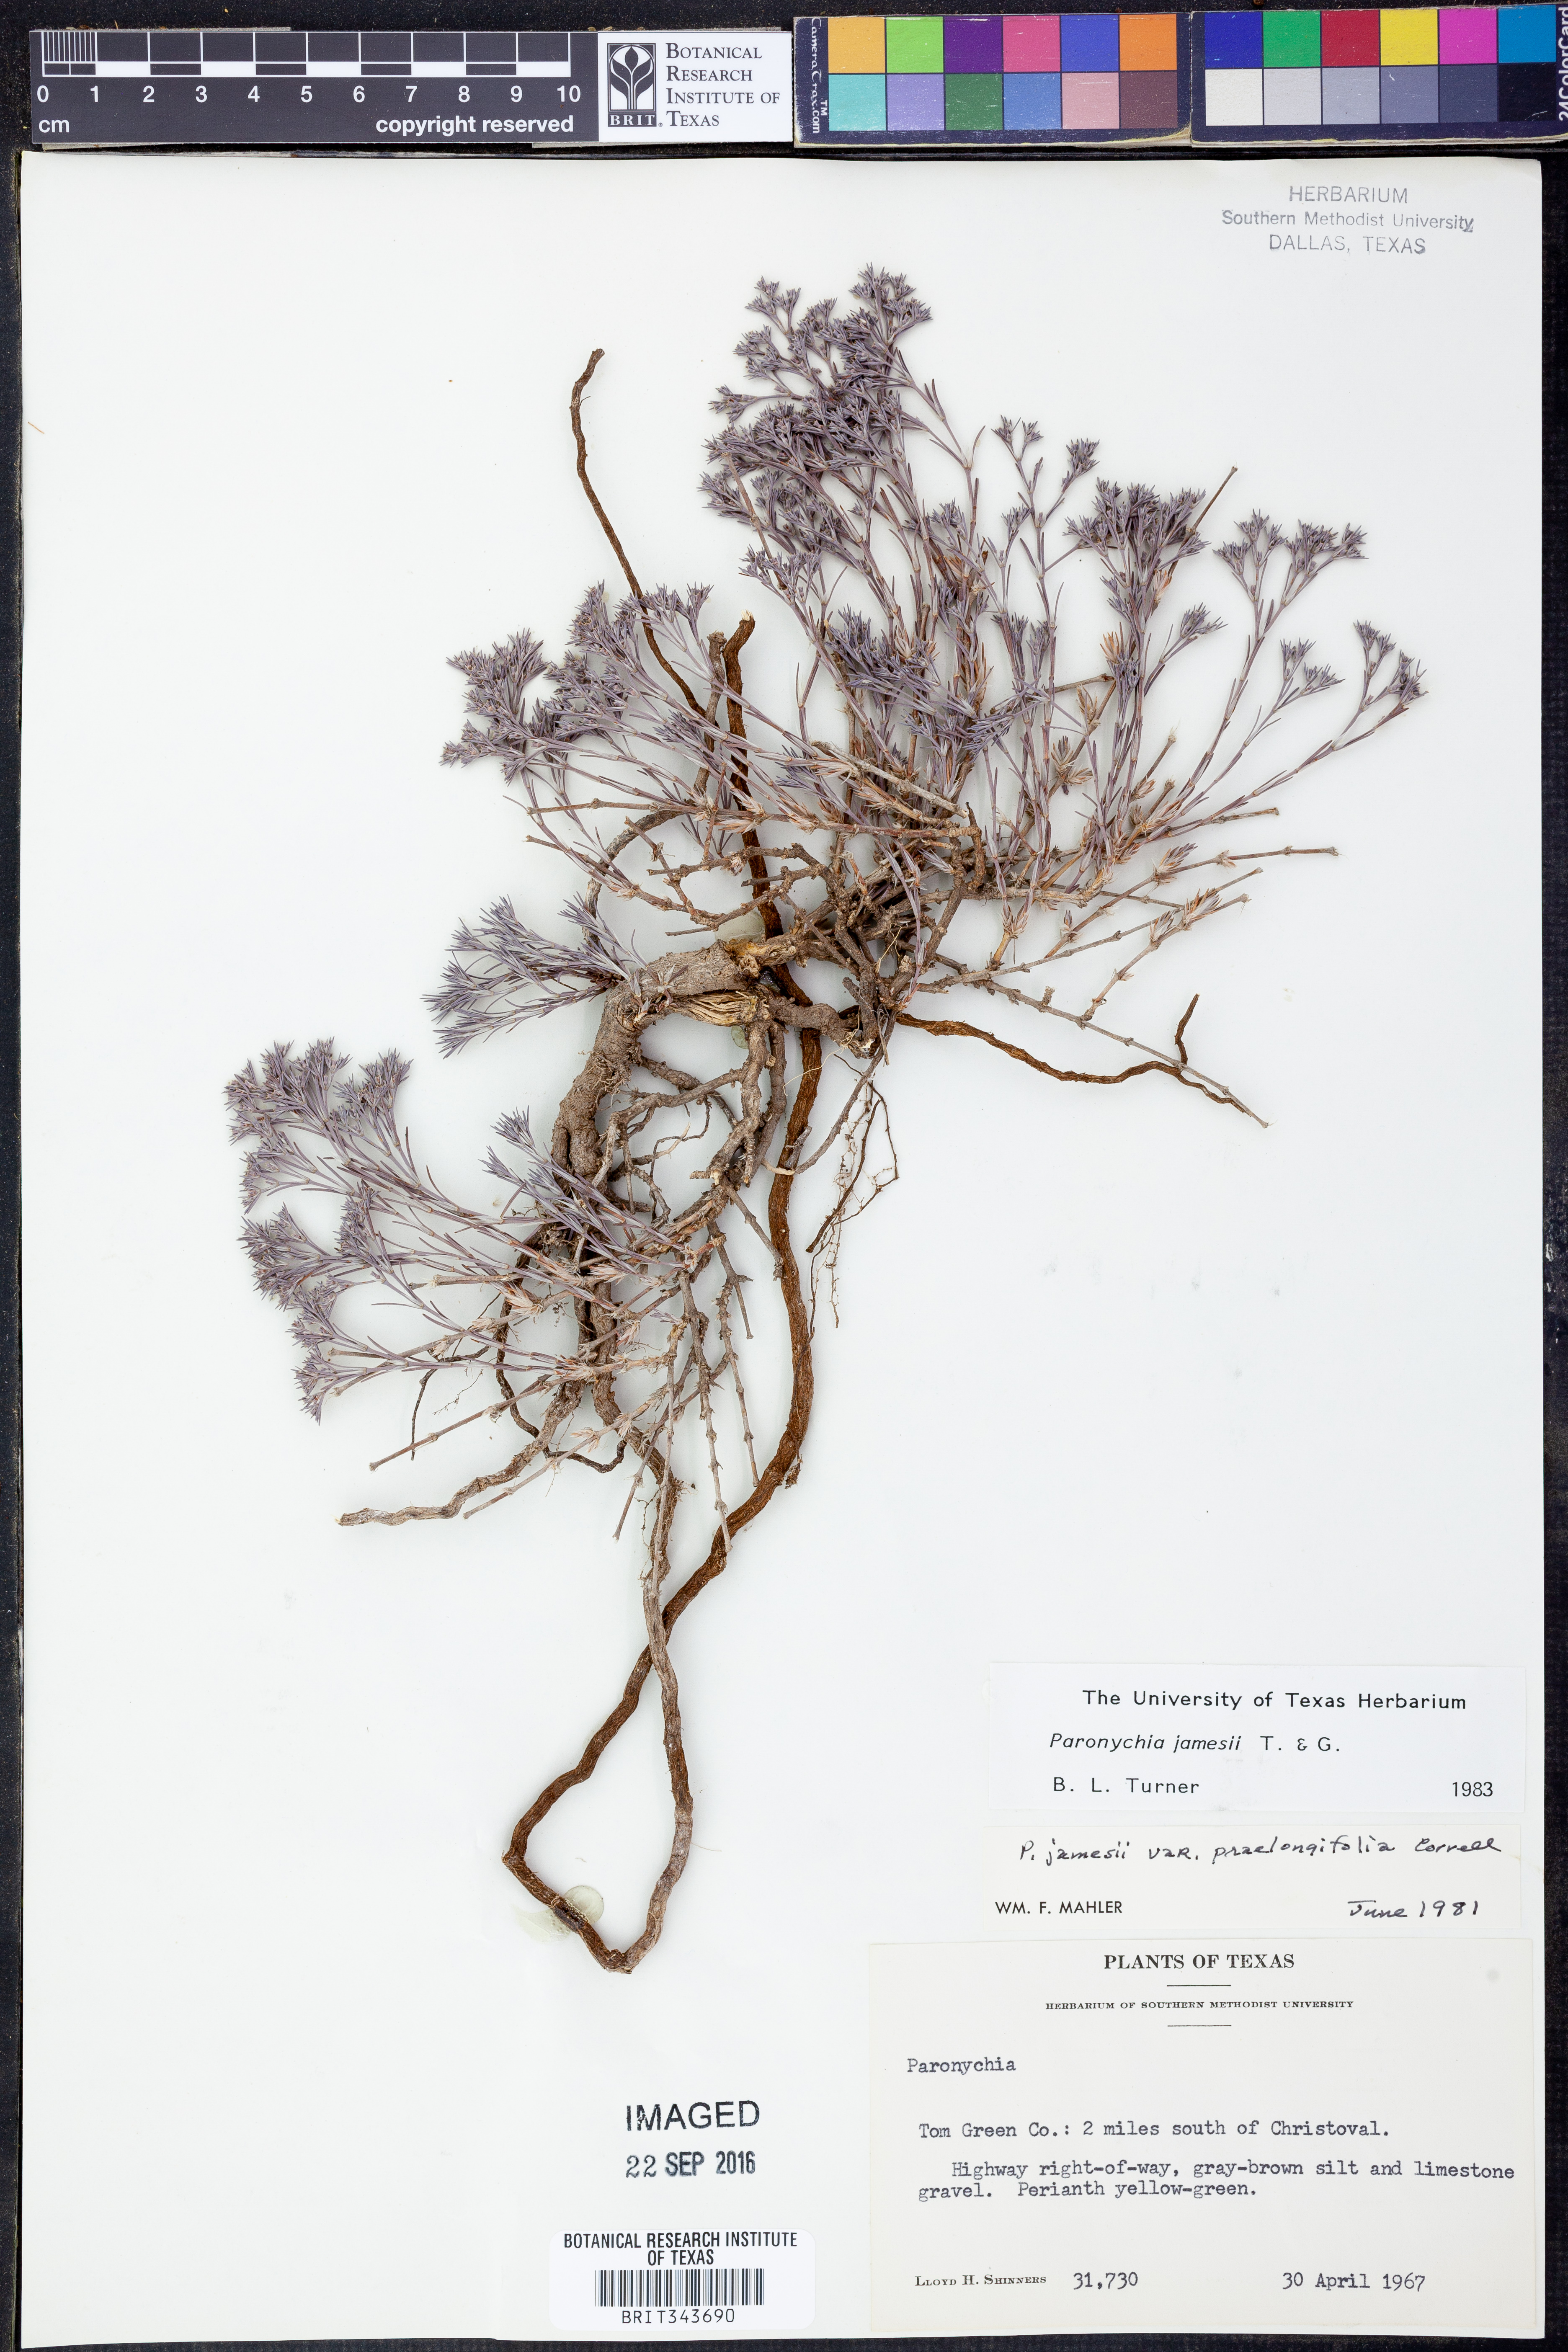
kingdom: Plantae
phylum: Tracheophyta
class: Magnoliopsida
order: Caryophyllales
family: Caryophyllaceae
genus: Paronychia
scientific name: Paronychia jamesii
